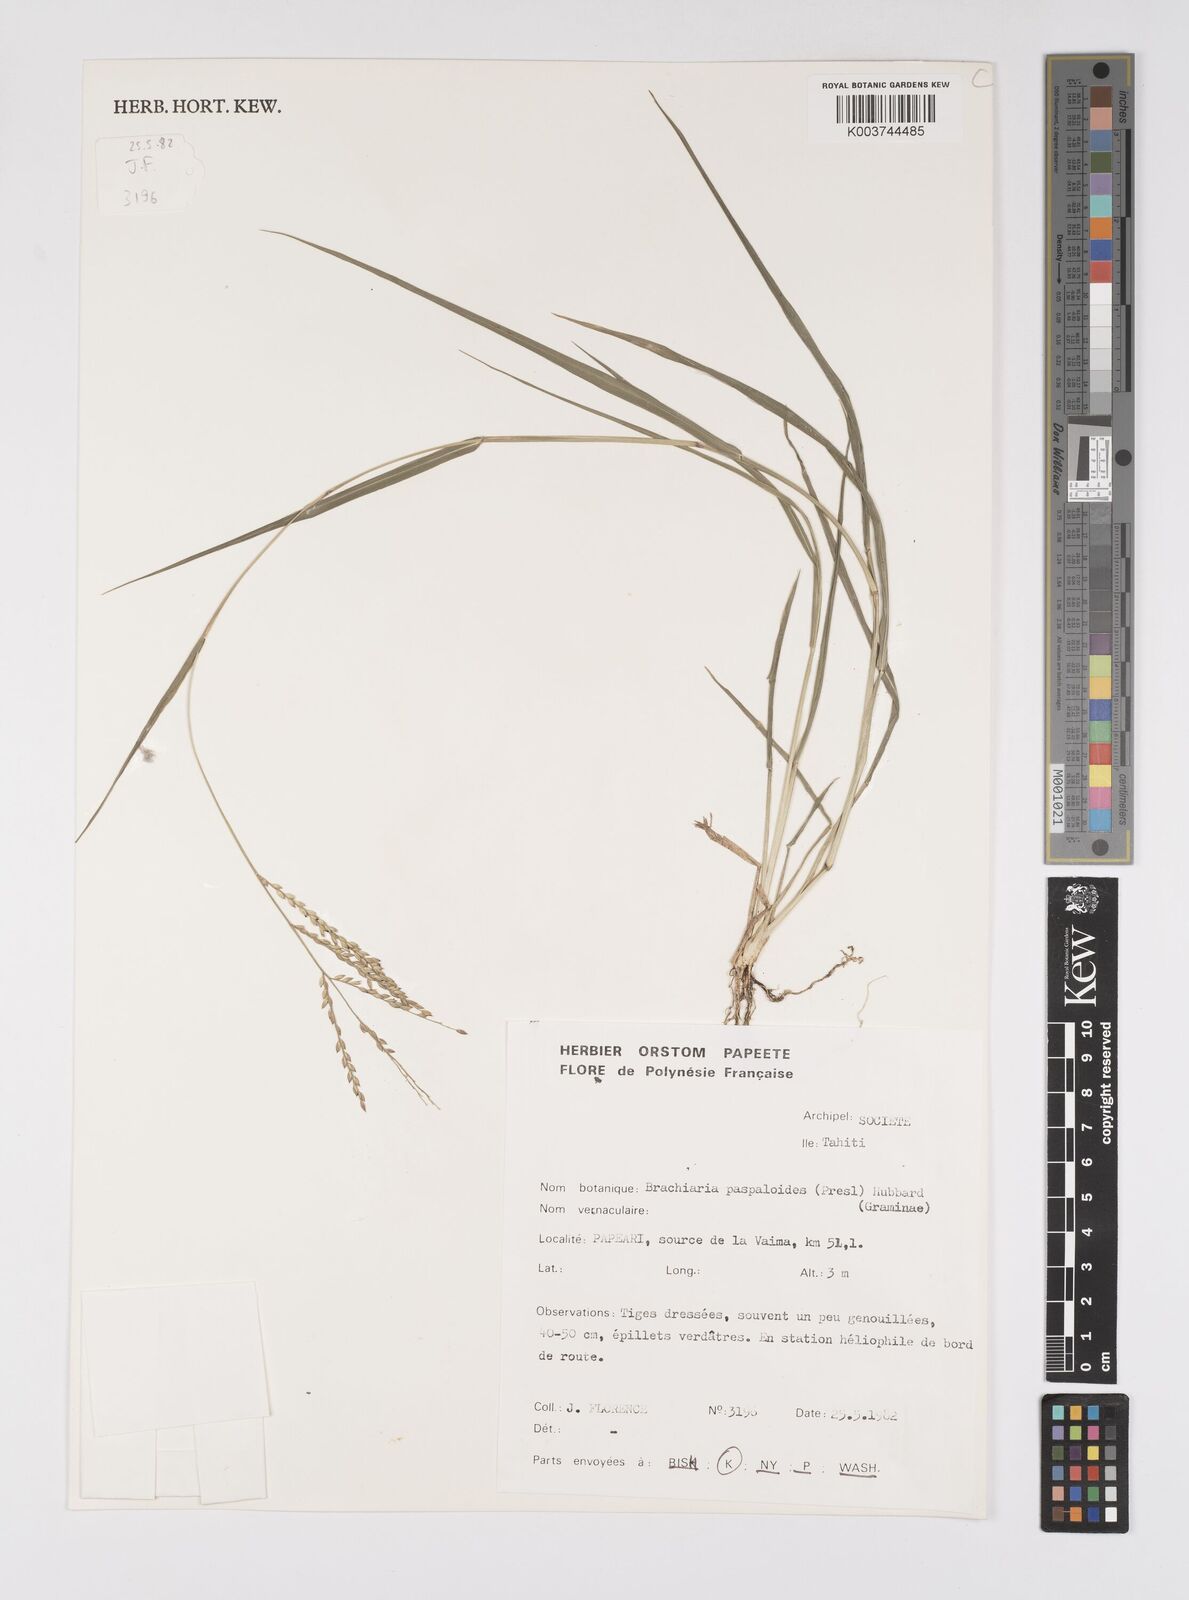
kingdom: Plantae
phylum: Tracheophyta
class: Liliopsida
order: Poales
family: Poaceae
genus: Urochloa
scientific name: Urochloa glumaris
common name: Thurston grass
